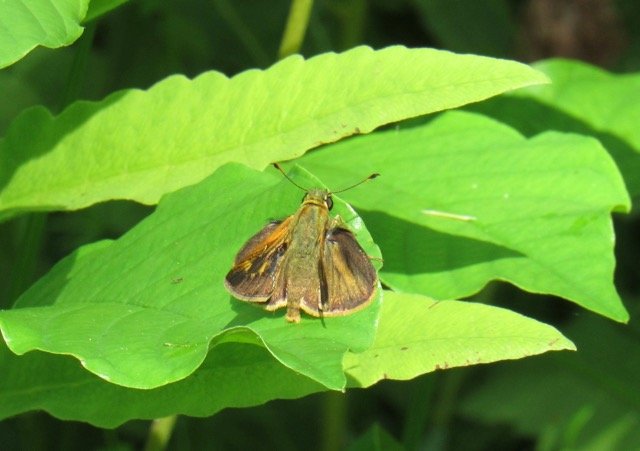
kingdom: Animalia
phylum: Arthropoda
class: Insecta
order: Lepidoptera
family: Hesperiidae
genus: Polites
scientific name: Polites egeremet
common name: Northern Broken-Dash
